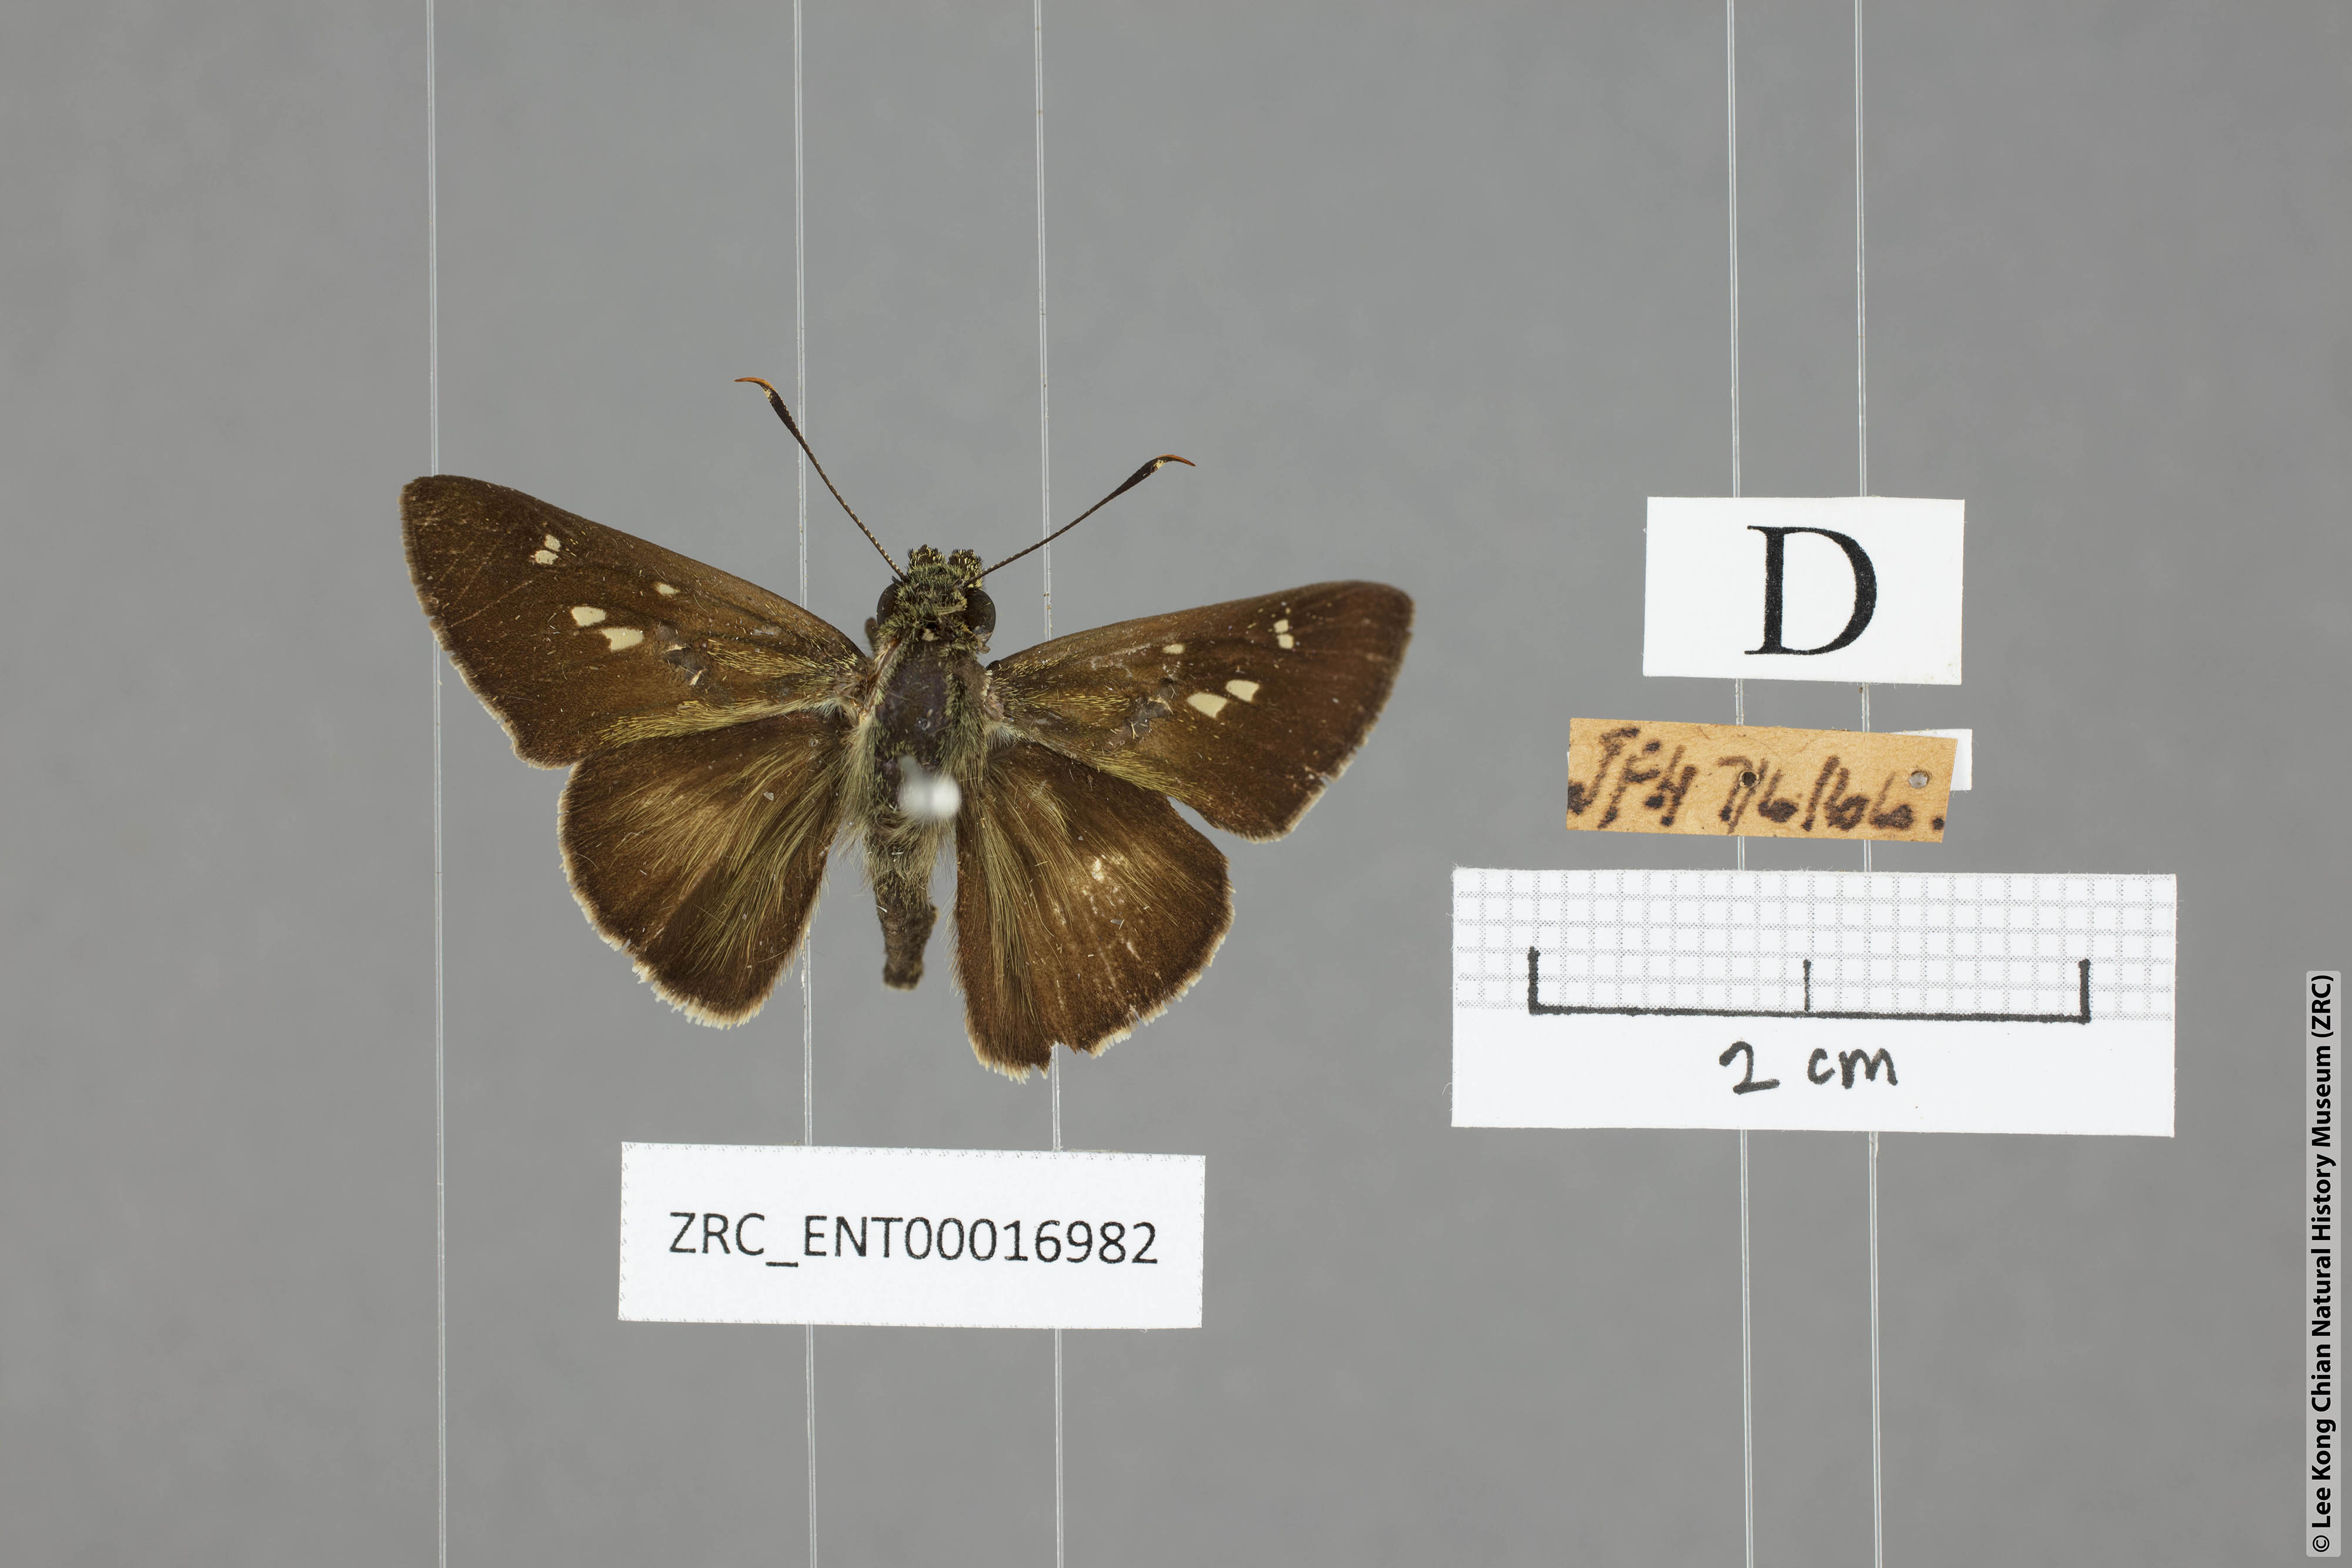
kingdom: Animalia
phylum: Arthropoda
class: Insecta
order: Lepidoptera
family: Hesperiidae
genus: Halpe
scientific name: Halpe elana
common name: Narrow-banded ace
